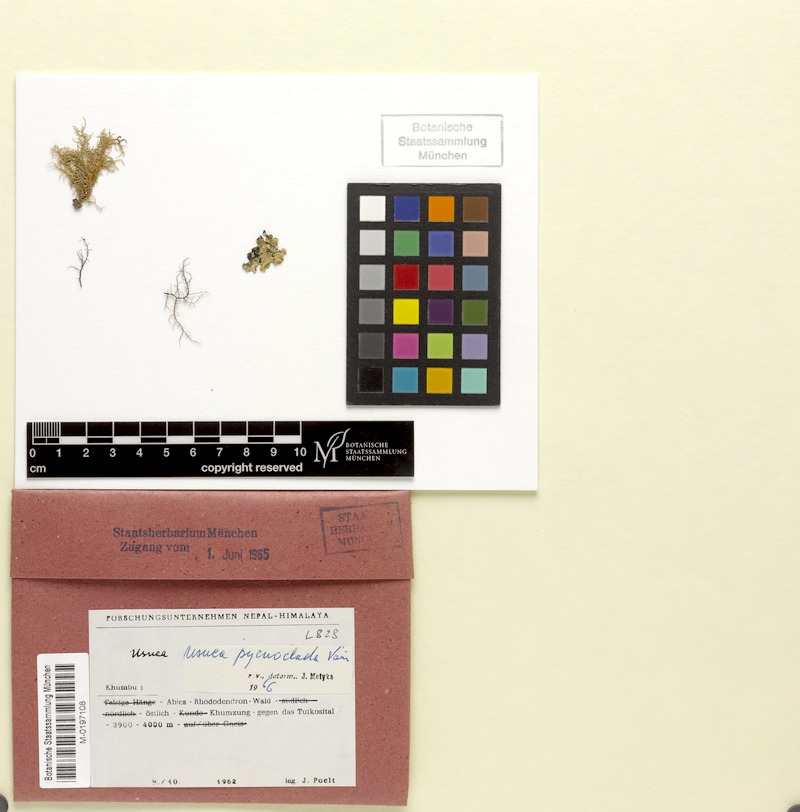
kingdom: Fungi
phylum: Ascomycota
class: Lecanoromycetes
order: Lecanorales
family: Parmeliaceae
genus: Usnea
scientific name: Usnea pycnoclada
